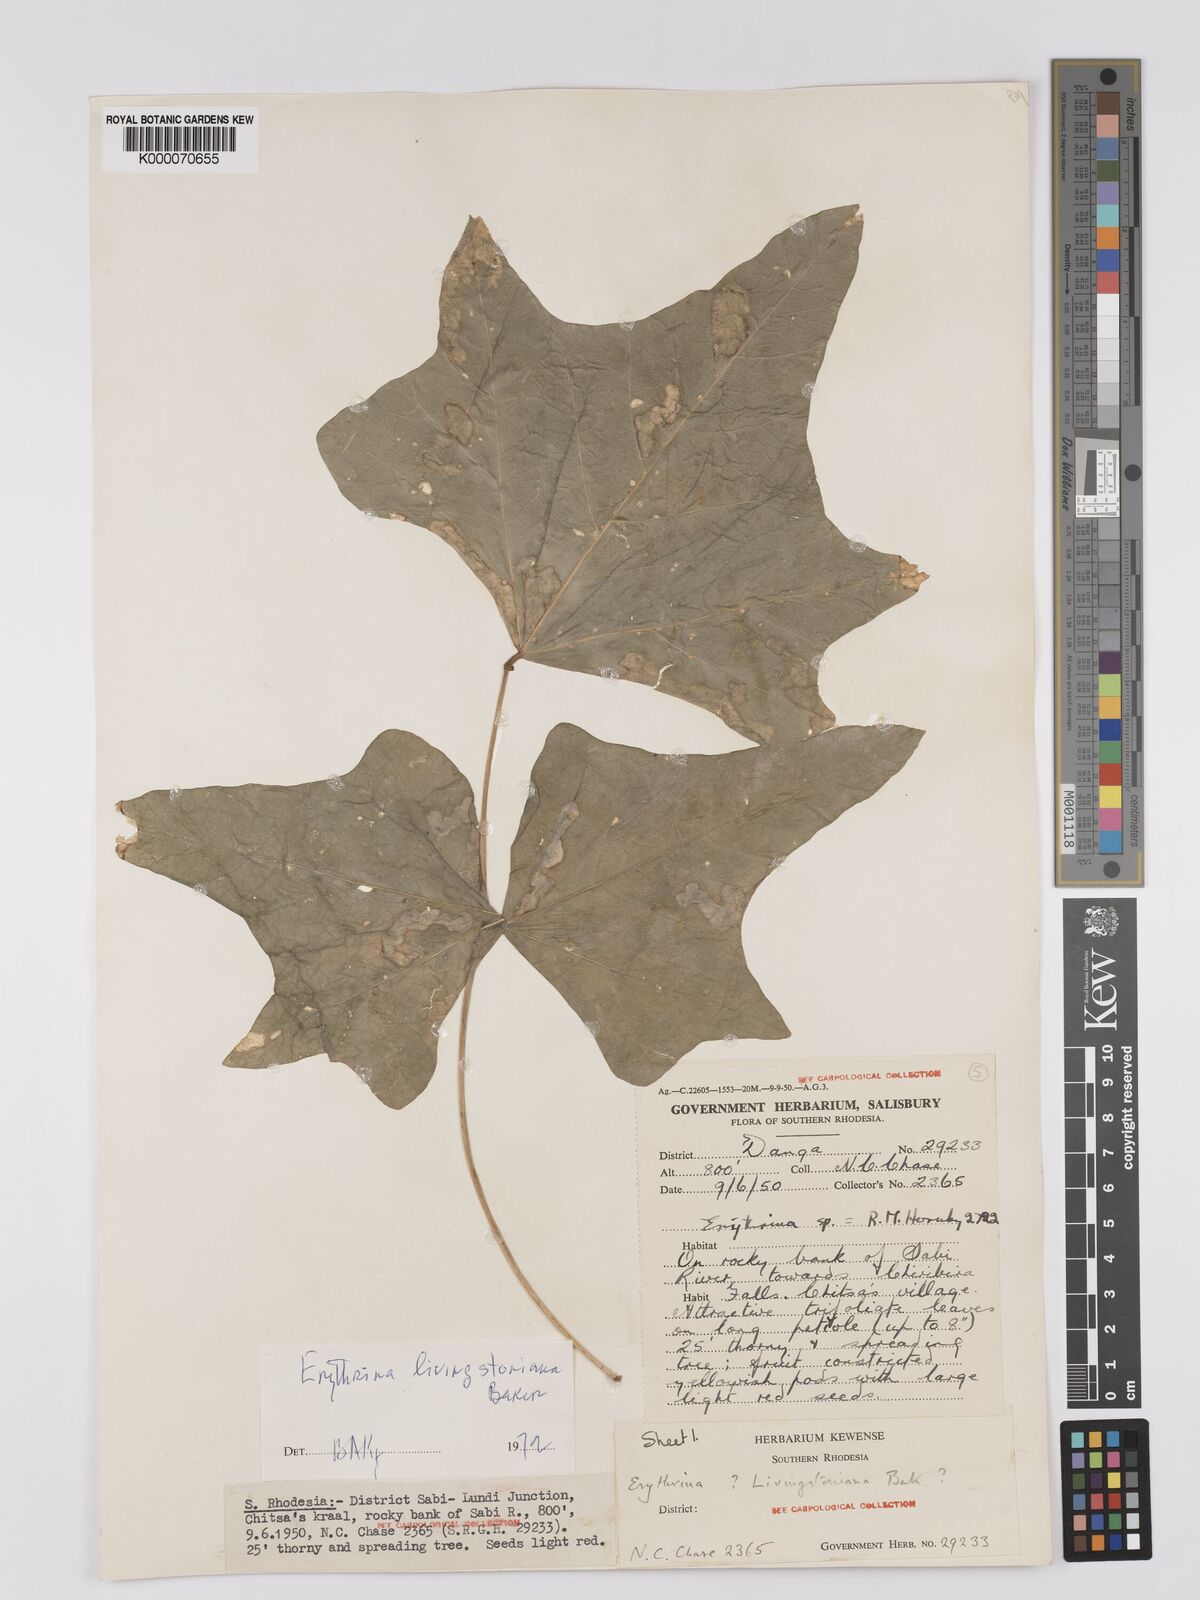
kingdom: Plantae
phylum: Tracheophyta
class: Magnoliopsida
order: Fabales
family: Fabaceae
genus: Erythrina
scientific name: Erythrina
